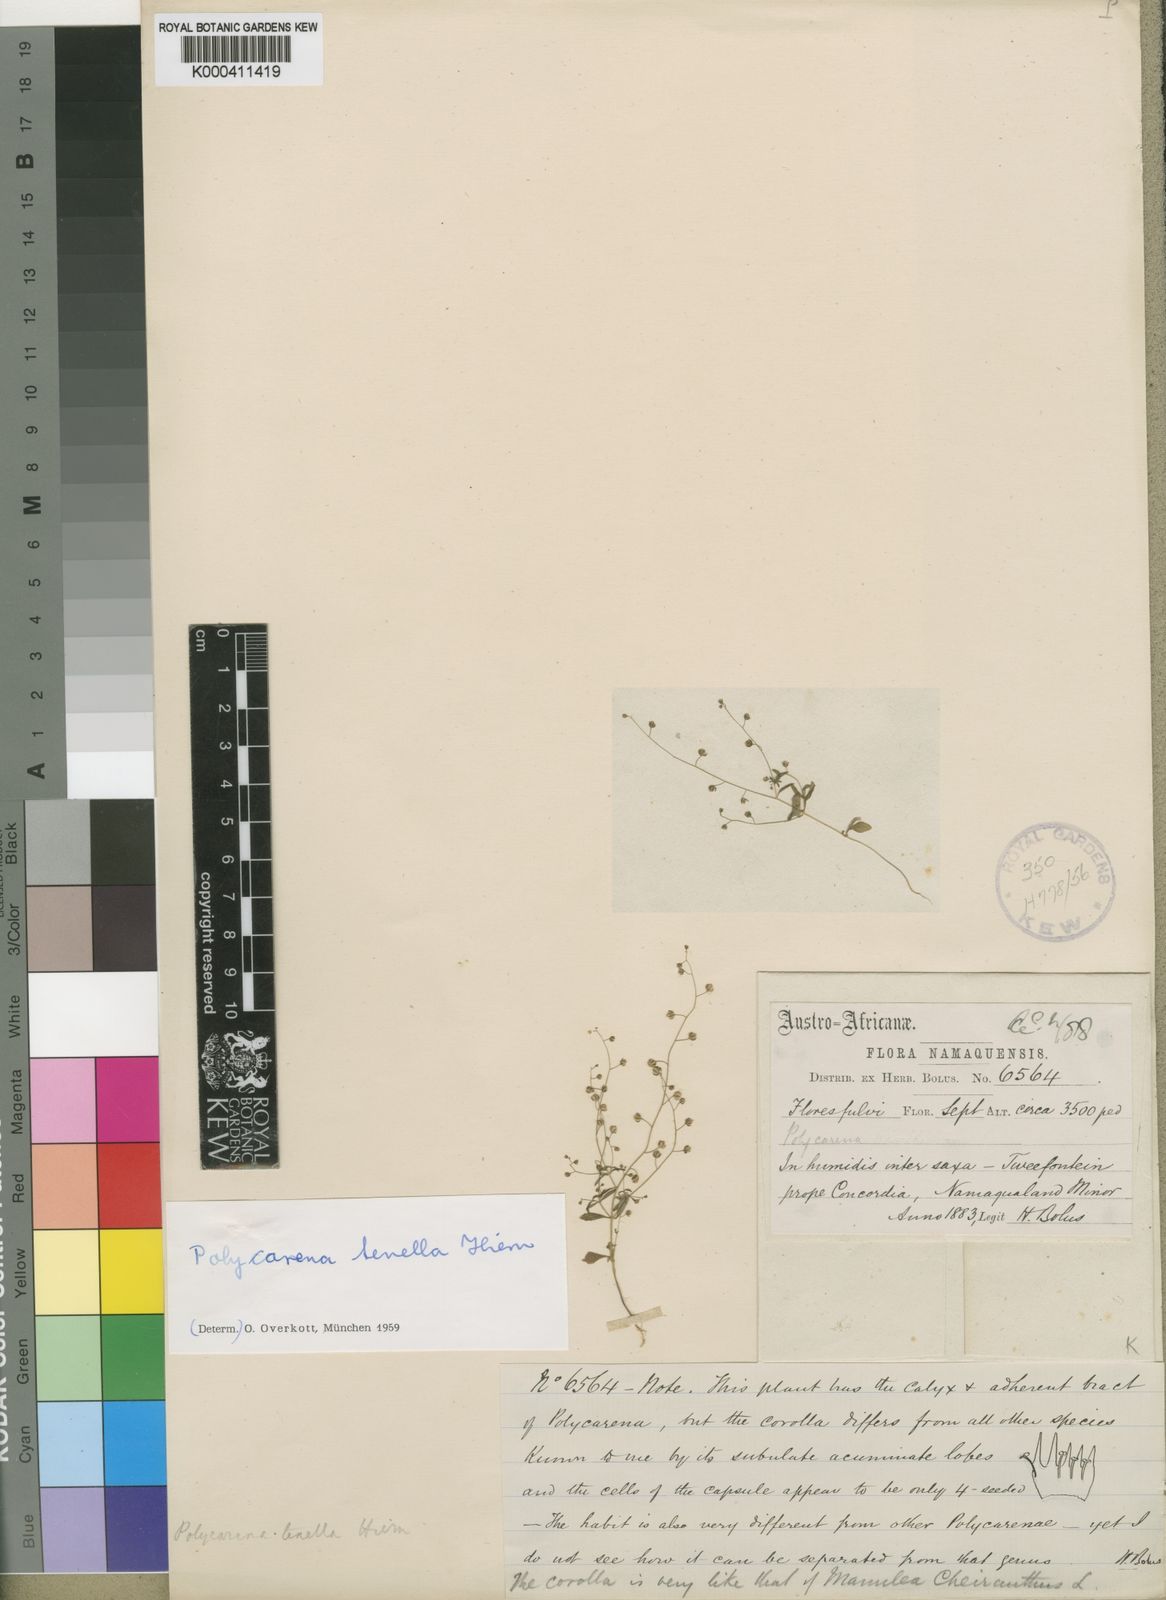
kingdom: Plantae
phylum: Tracheophyta
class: Magnoliopsida
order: Lamiales
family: Scrophulariaceae
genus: Polycarena
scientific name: Polycarena tenella
